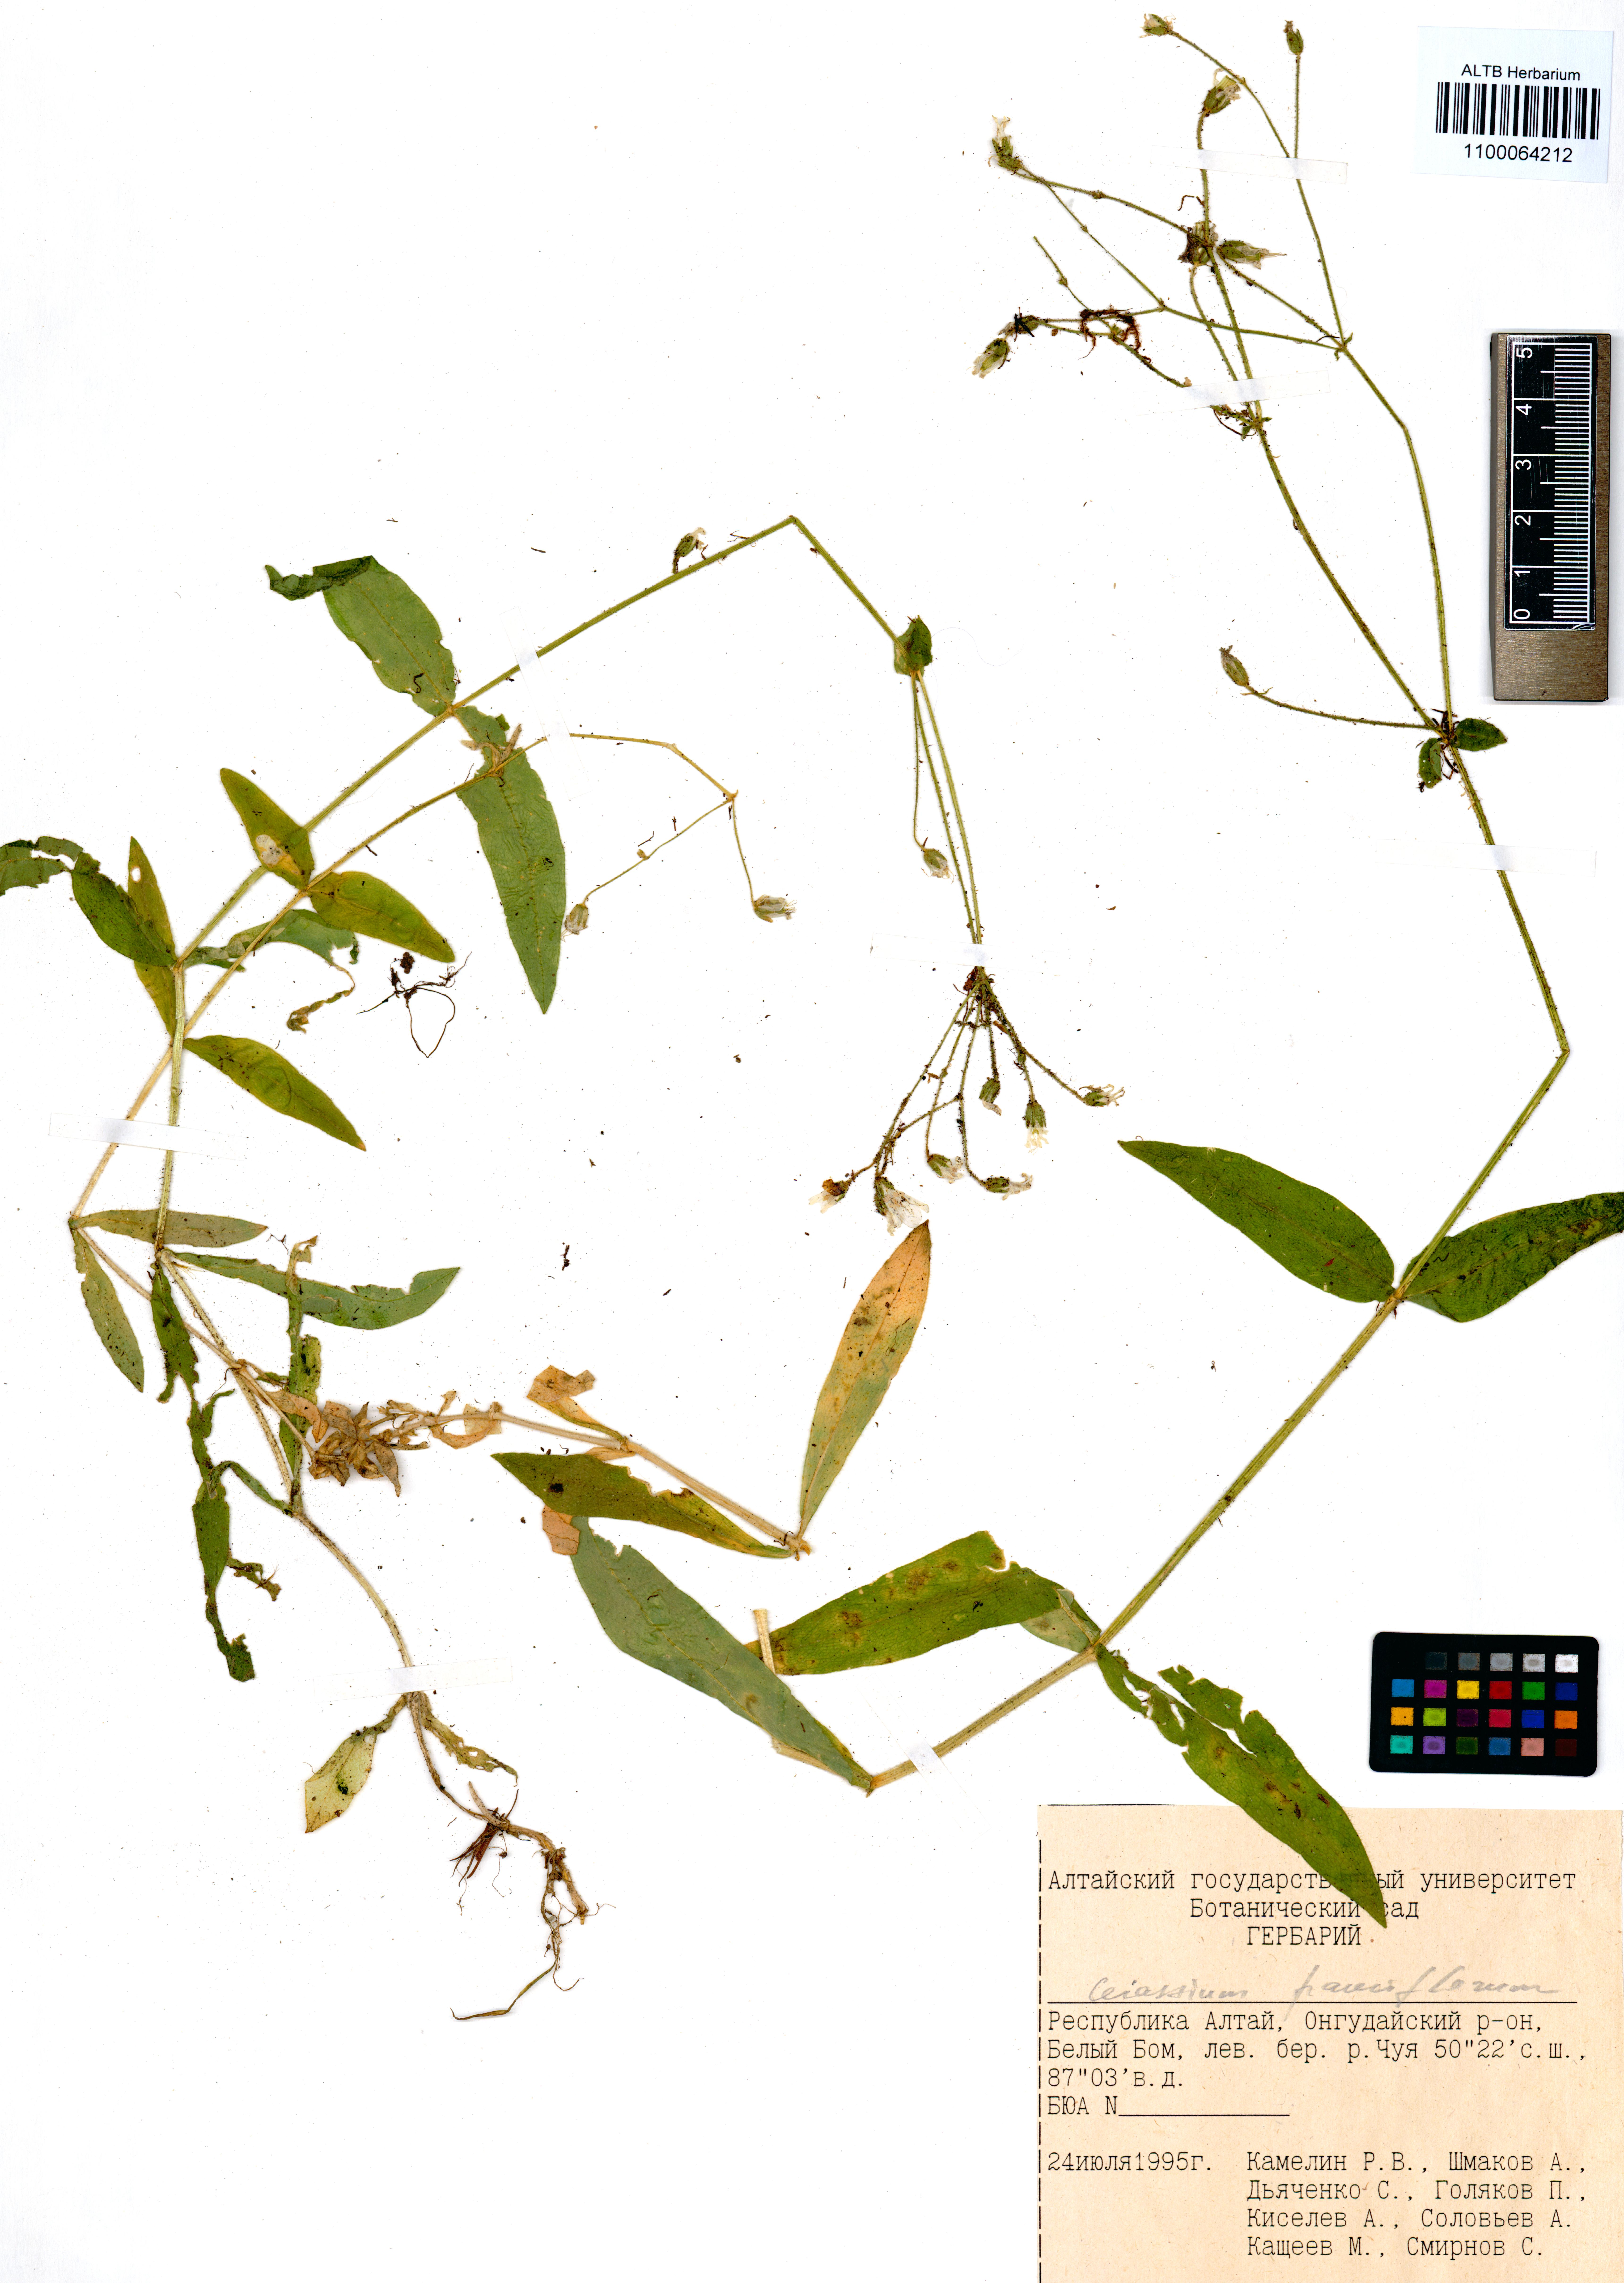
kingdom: Plantae
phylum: Tracheophyta
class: Magnoliopsida
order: Caryophyllales
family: Caryophyllaceae
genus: Cerastium
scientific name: Cerastium pauciflorum
